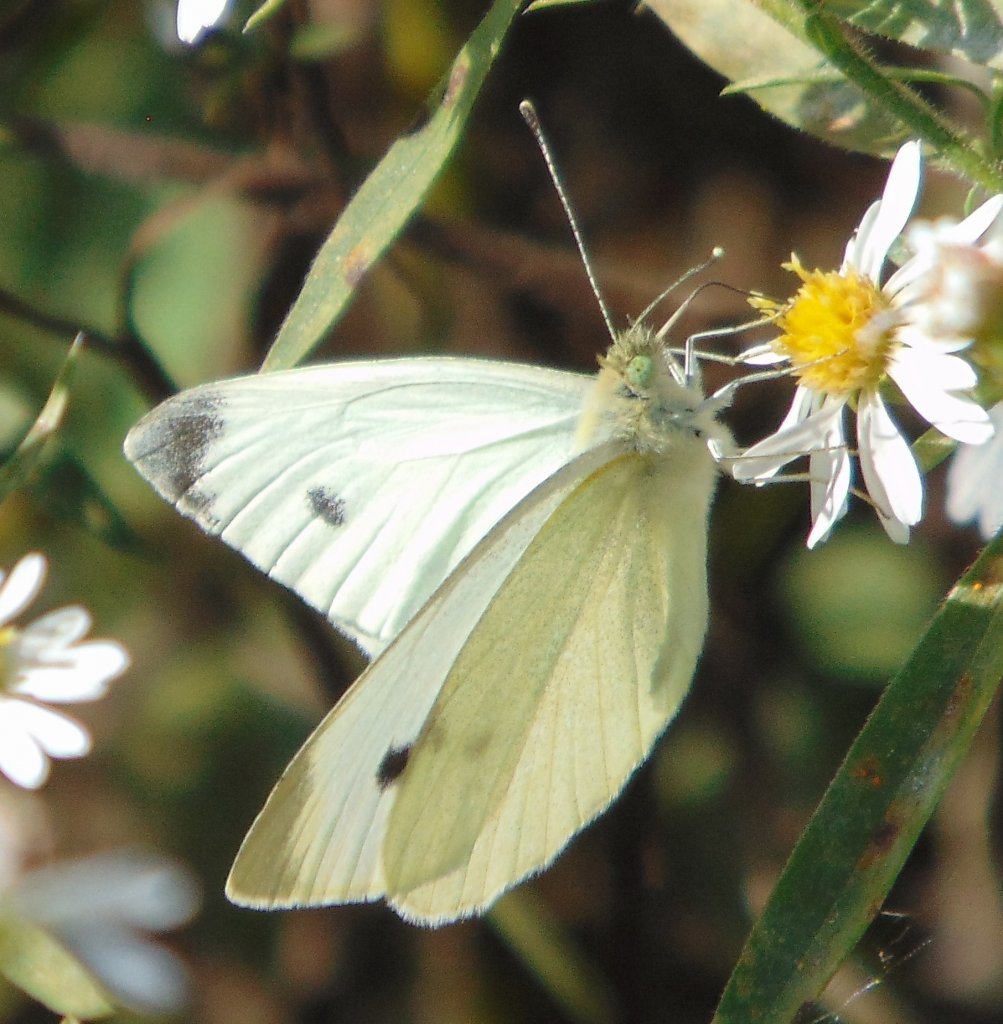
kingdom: Animalia
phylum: Arthropoda
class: Insecta
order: Lepidoptera
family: Pieridae
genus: Pieris
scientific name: Pieris rapae
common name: Cabbage White
